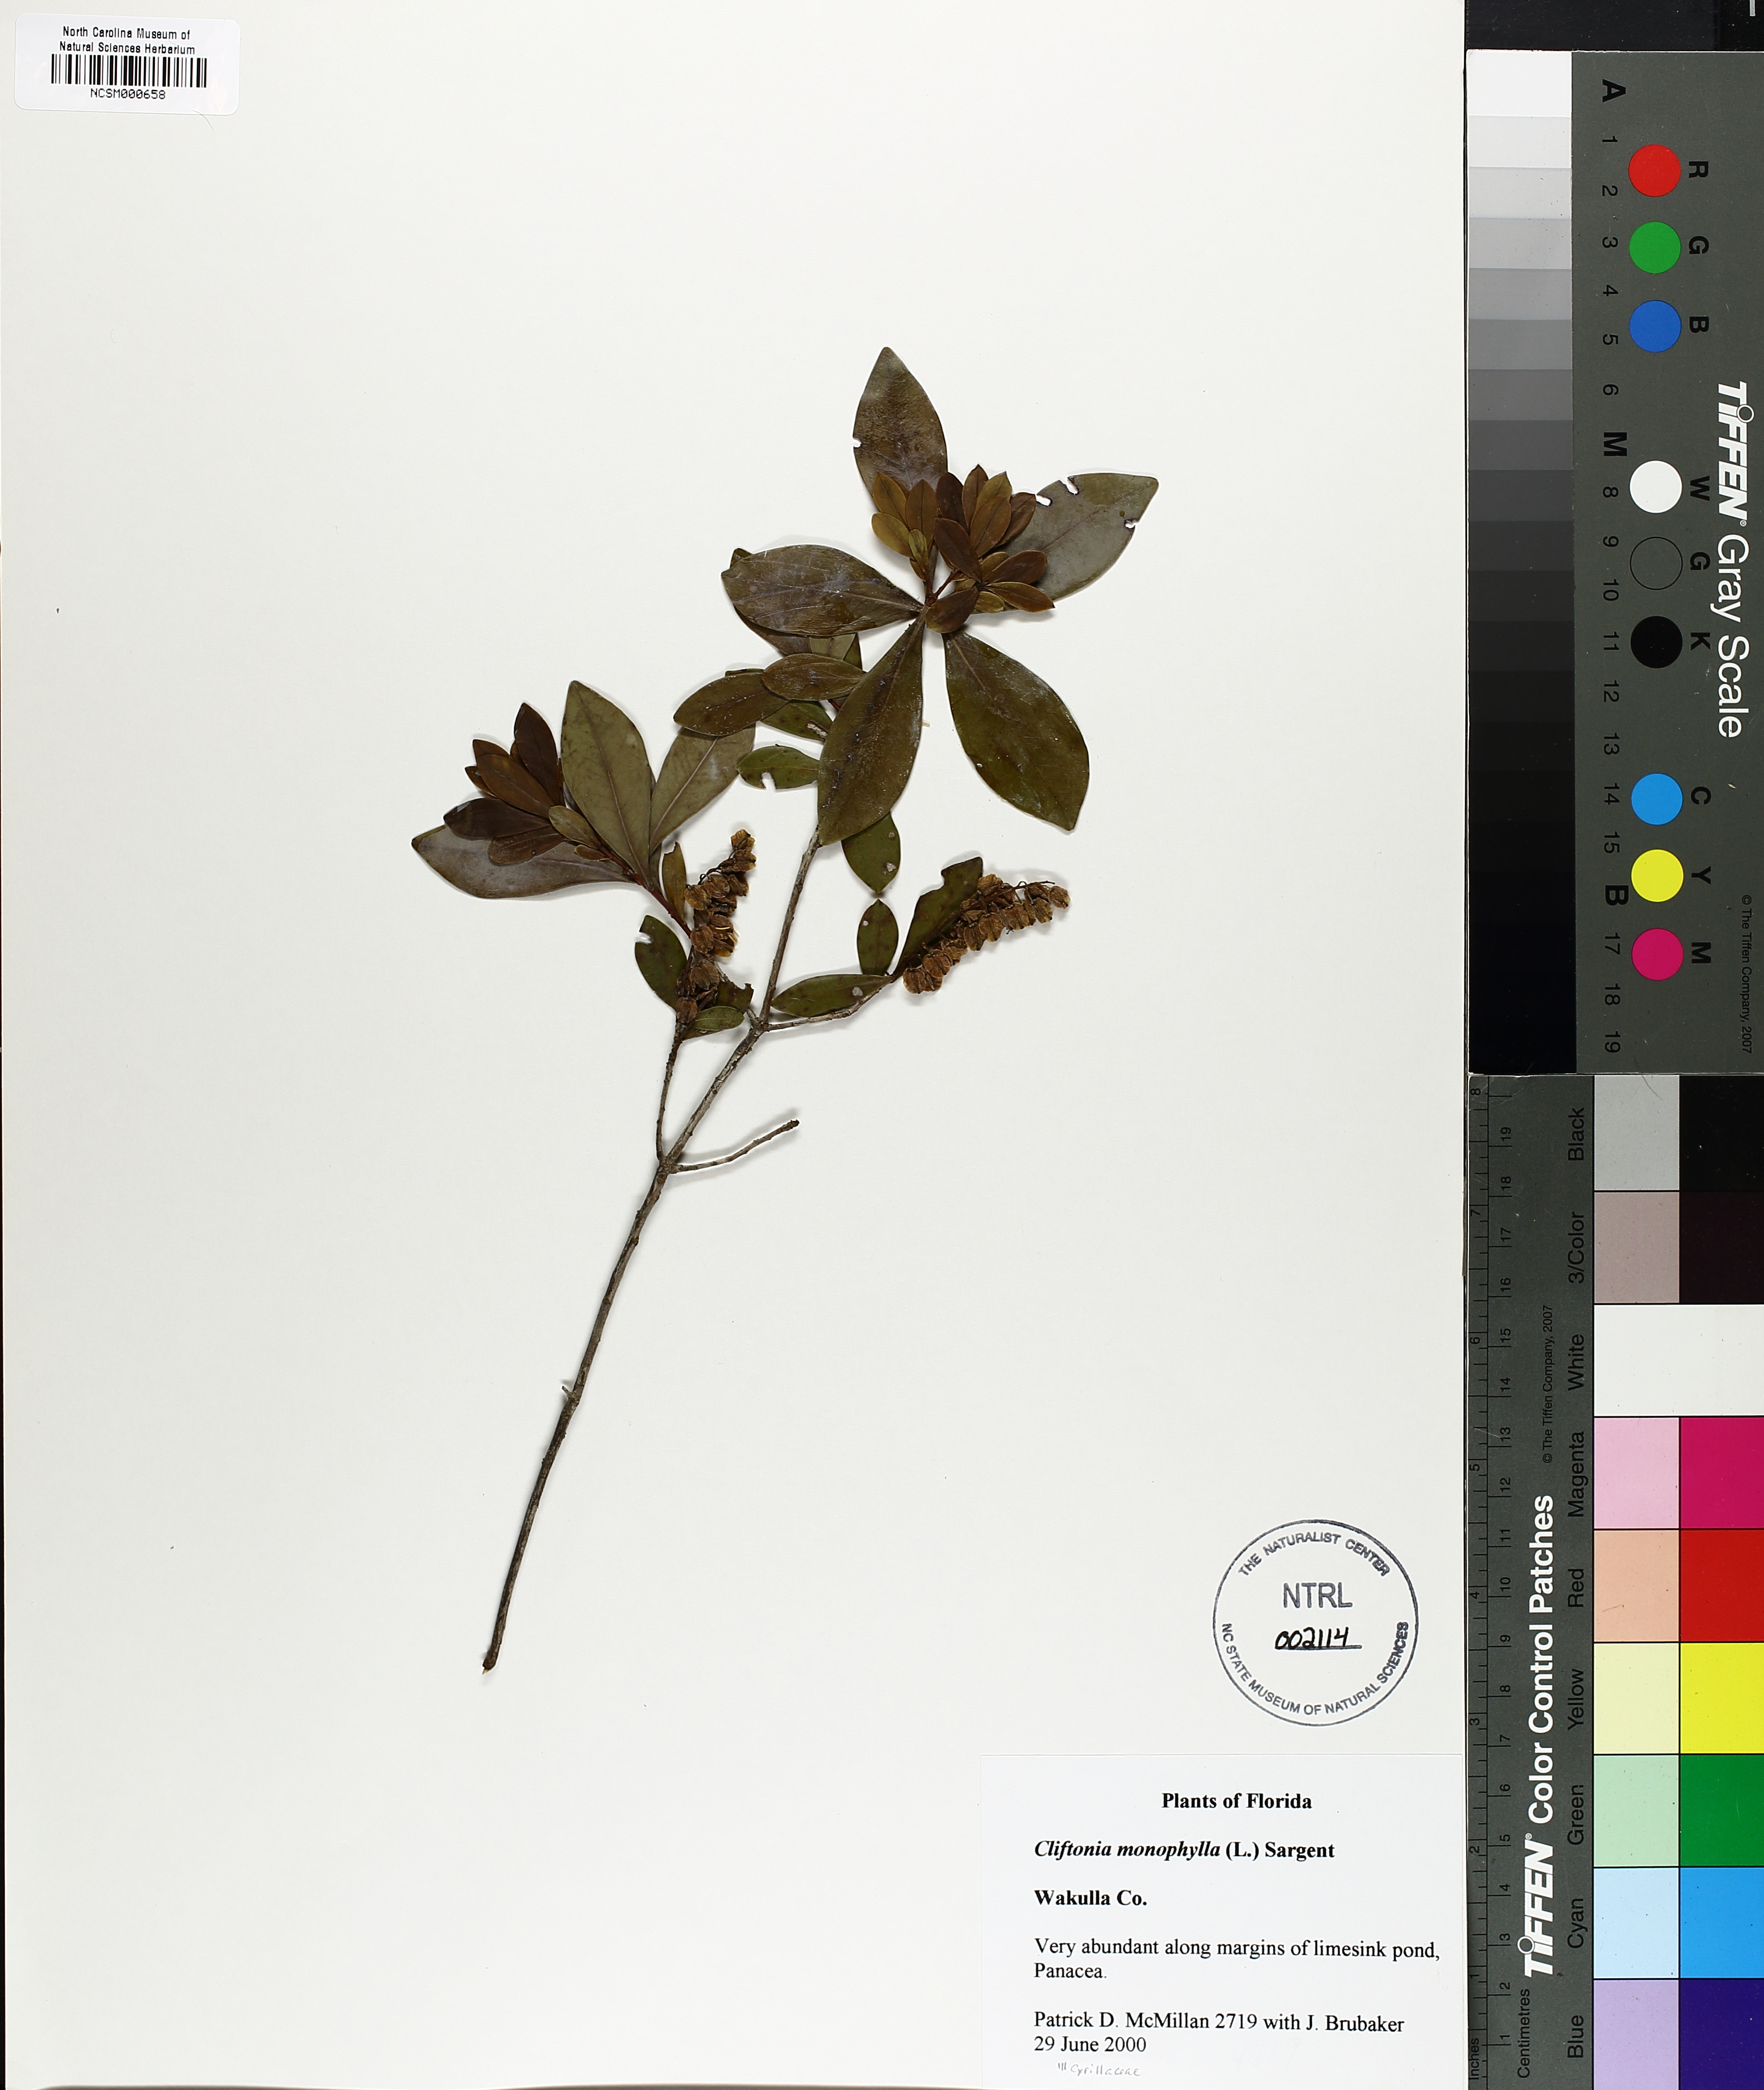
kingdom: Plantae
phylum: Tracheophyta
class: Magnoliopsida
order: Ericales
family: Cyrillaceae
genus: Cliftonia
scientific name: Cliftonia monophylla
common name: Titi
